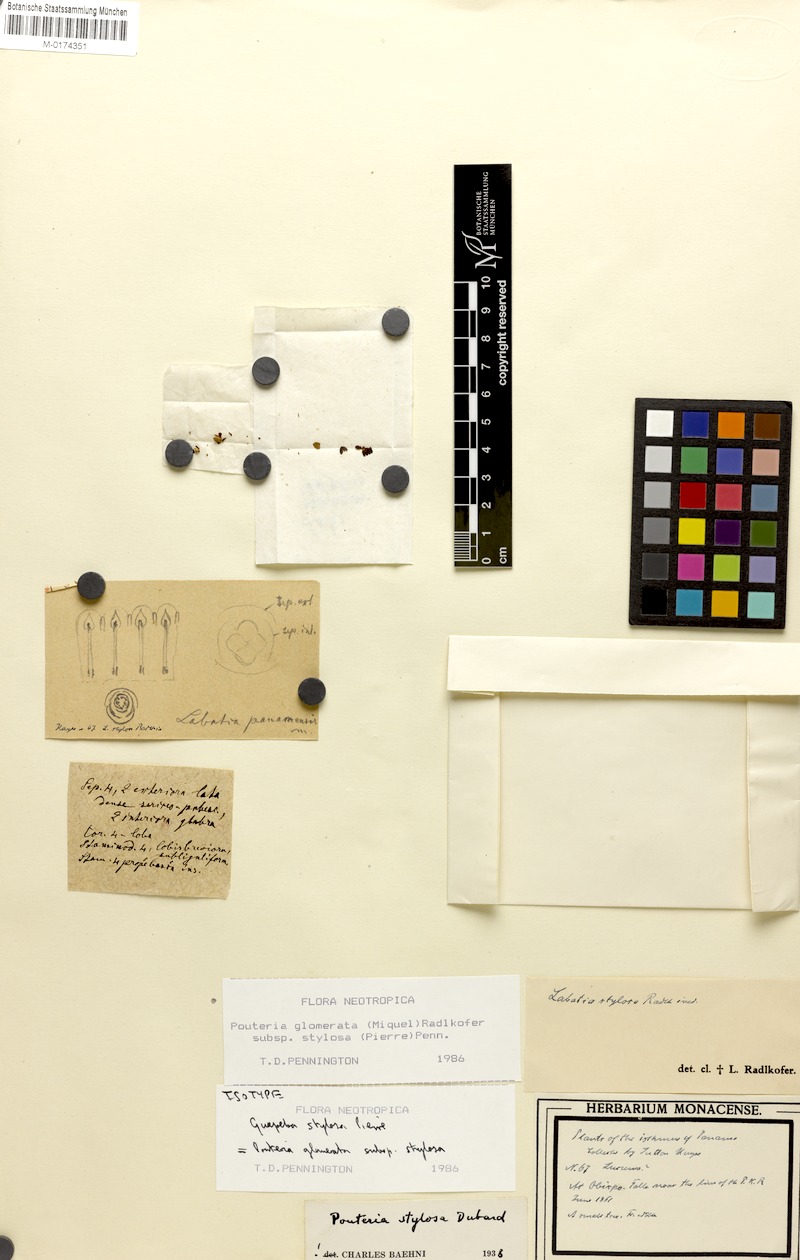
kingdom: Plantae
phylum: Tracheophyta
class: Magnoliopsida
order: Ericales
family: Sapotaceae
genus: Pouteria
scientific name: Pouteria glomerata
